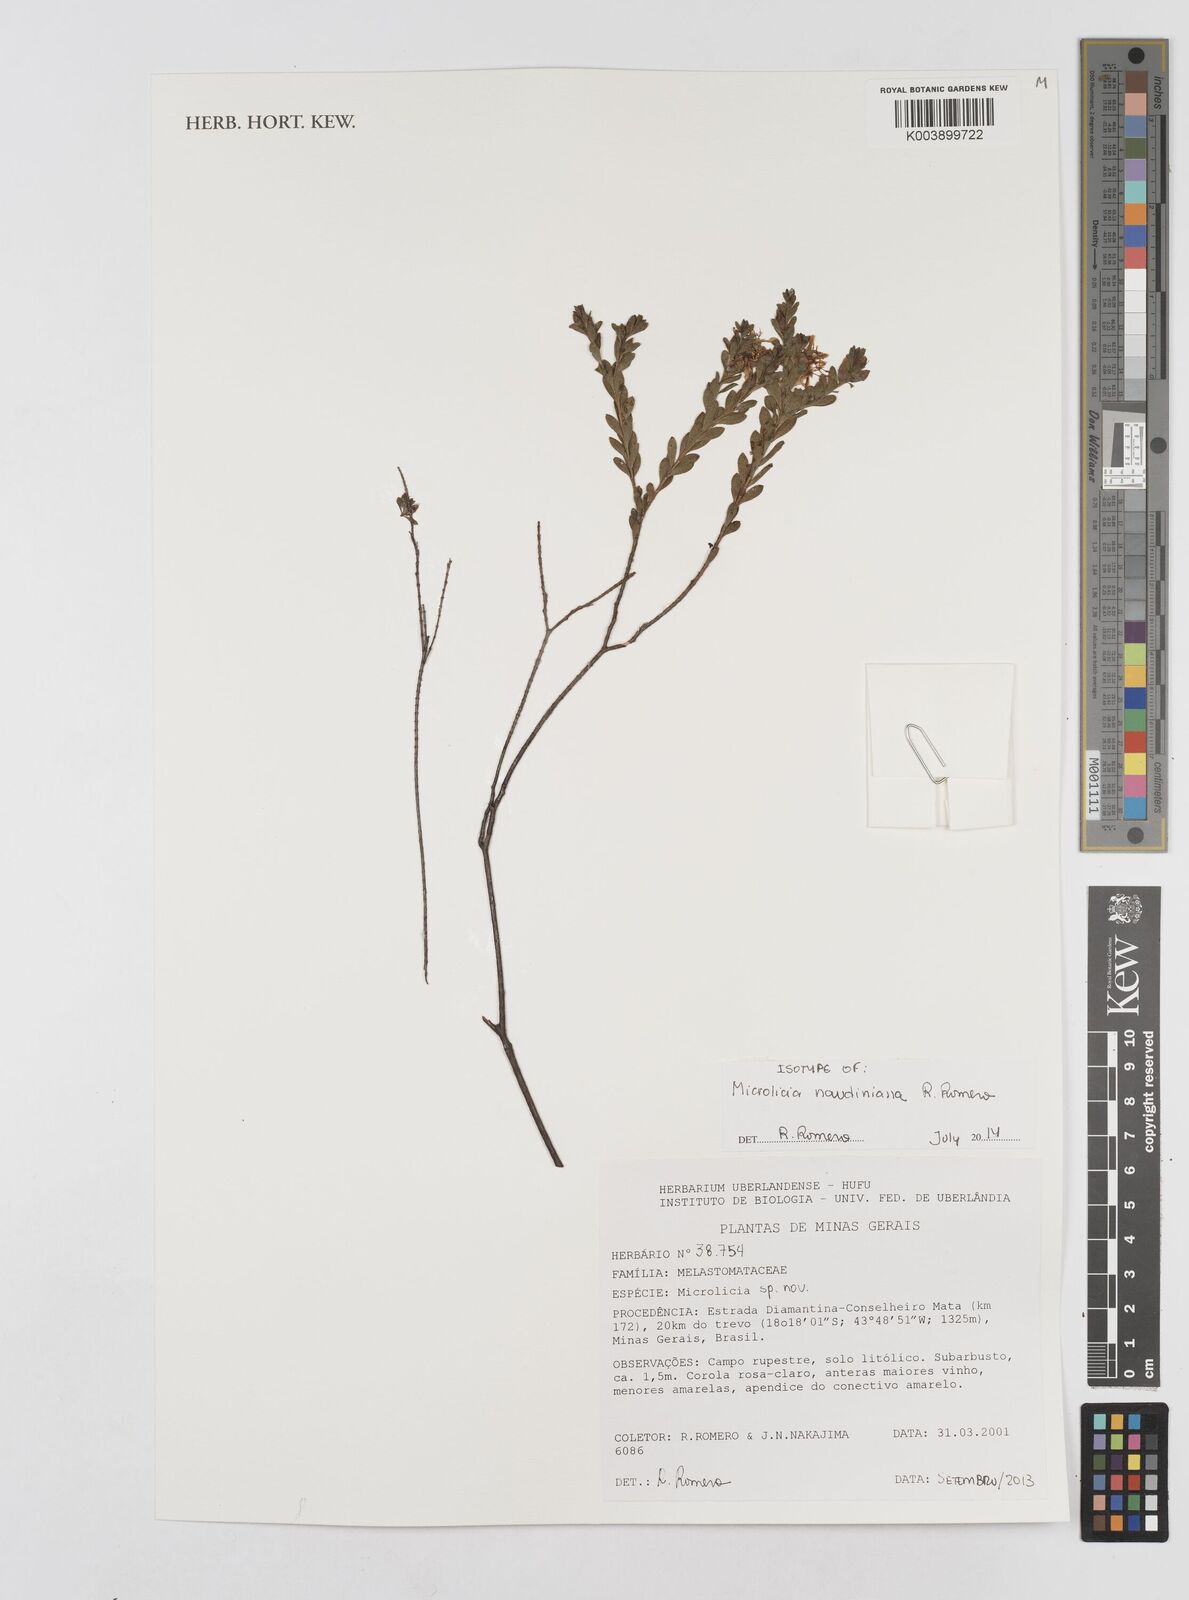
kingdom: Plantae
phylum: Tracheophyta
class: Magnoliopsida
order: Myrtales
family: Melastomataceae
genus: Microlicia
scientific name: Microlicia naudiniana
